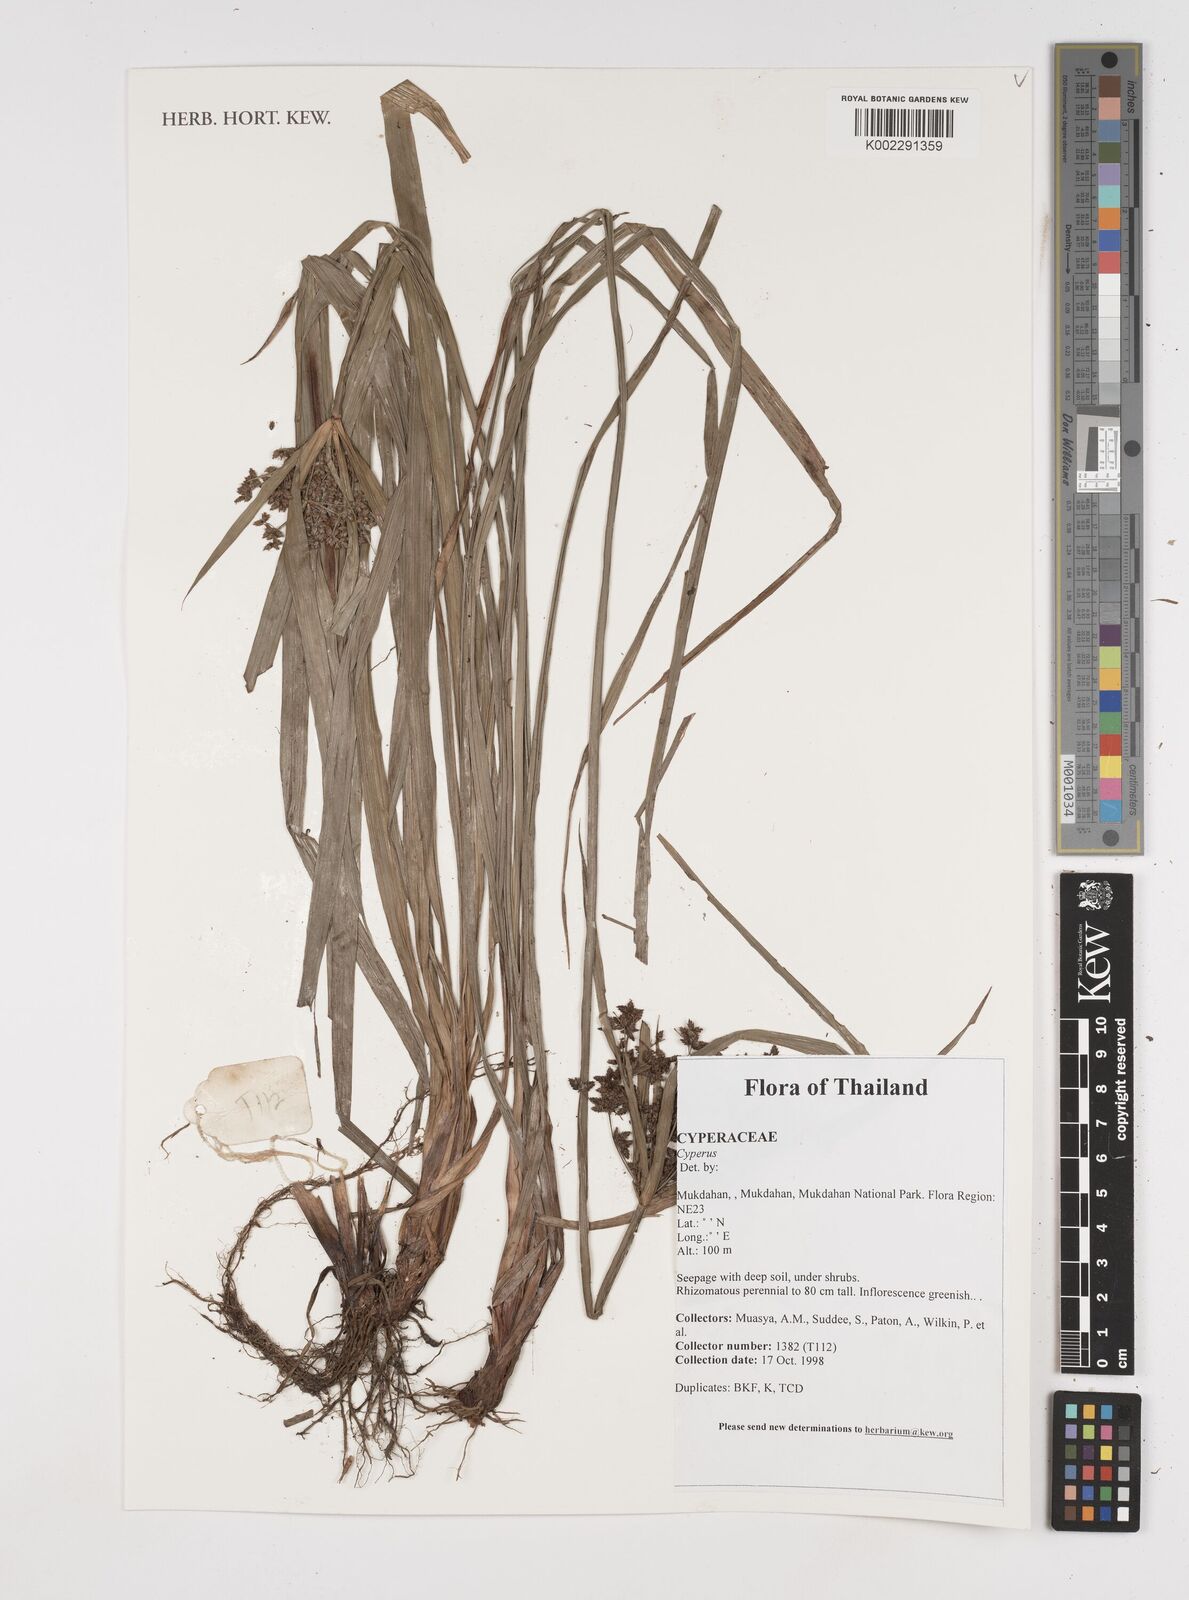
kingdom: Plantae
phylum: Tracheophyta
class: Liliopsida
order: Poales
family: Cyperaceae
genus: Cyperus
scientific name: Cyperus
